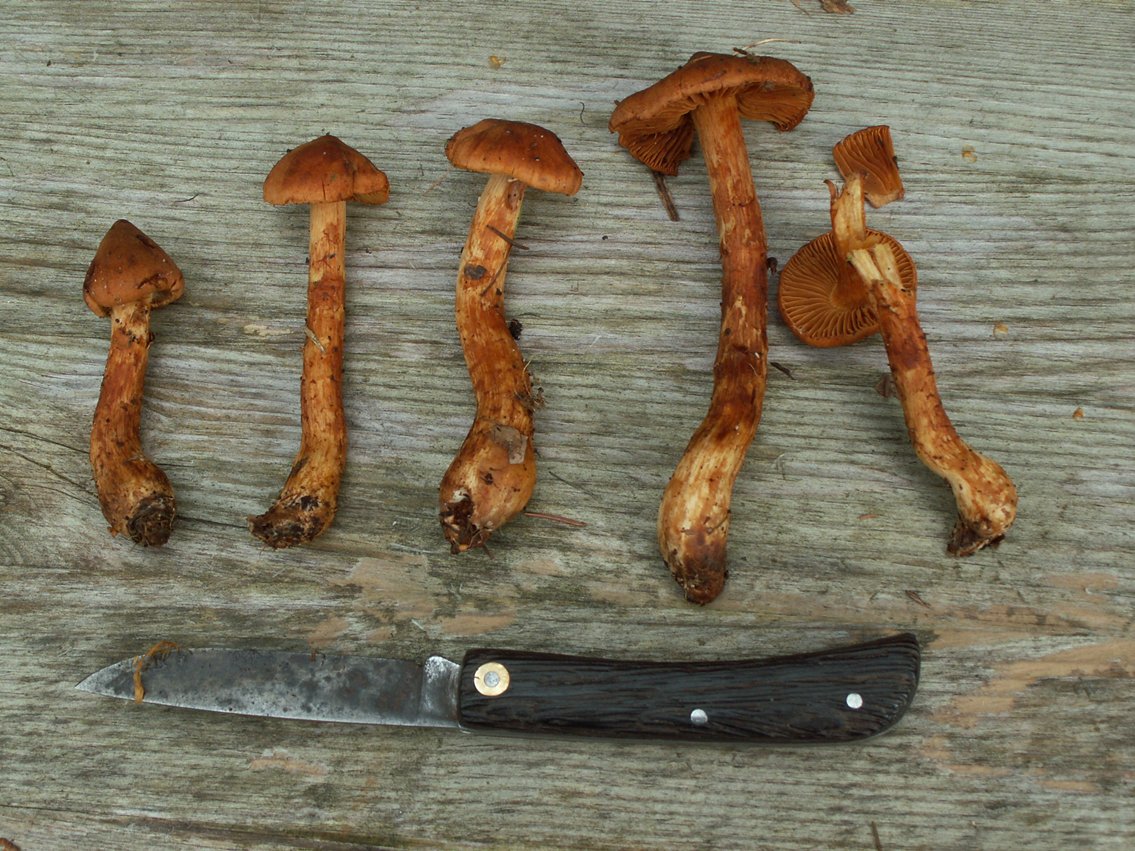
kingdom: Fungi
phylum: Basidiomycota
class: Agaricomycetes
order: Agaricales
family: Cortinariaceae
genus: Cortinarius
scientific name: Cortinarius rubellus
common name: puklet gift-slørhat
